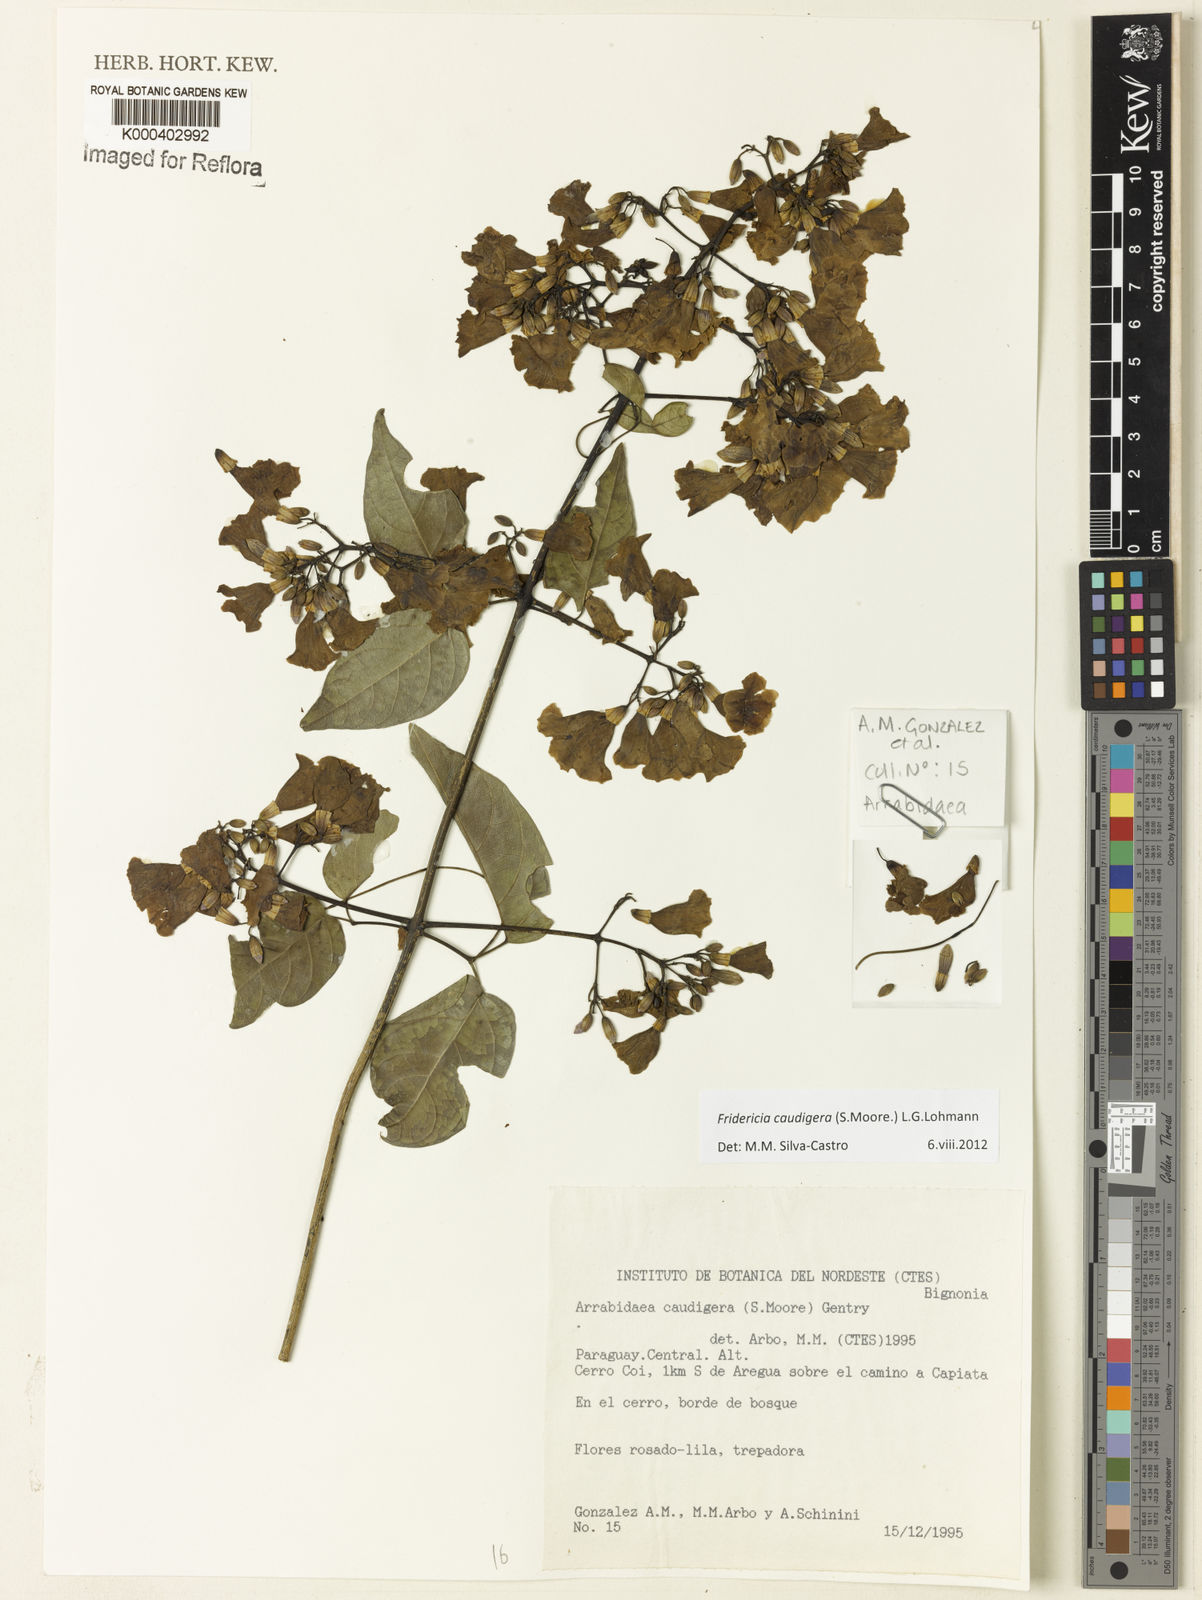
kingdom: Plantae
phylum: Tracheophyta
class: Magnoliopsida
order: Lamiales
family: Bignoniaceae
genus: Fridericia
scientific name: Fridericia caudigera
